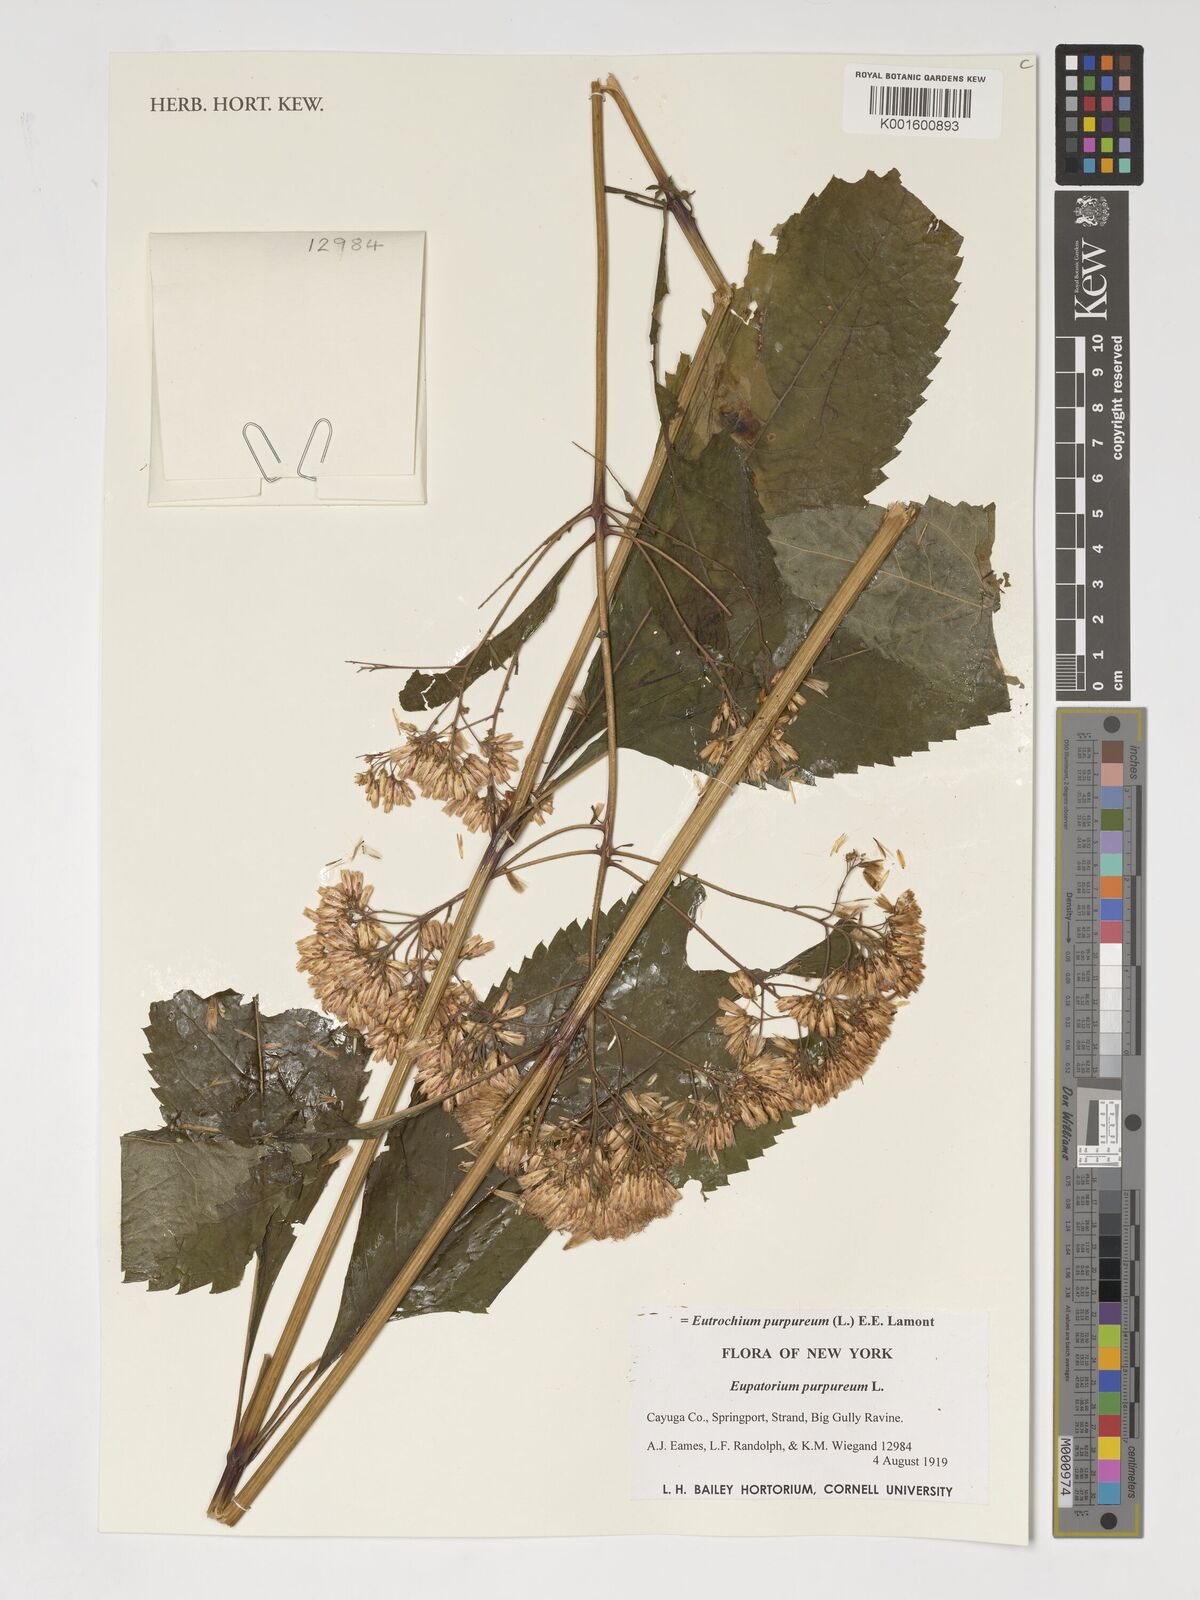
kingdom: Plantae
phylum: Tracheophyta
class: Magnoliopsida
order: Asterales
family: Asteraceae
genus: Eutrochium
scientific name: Eutrochium purpureum
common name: Gravelroot
